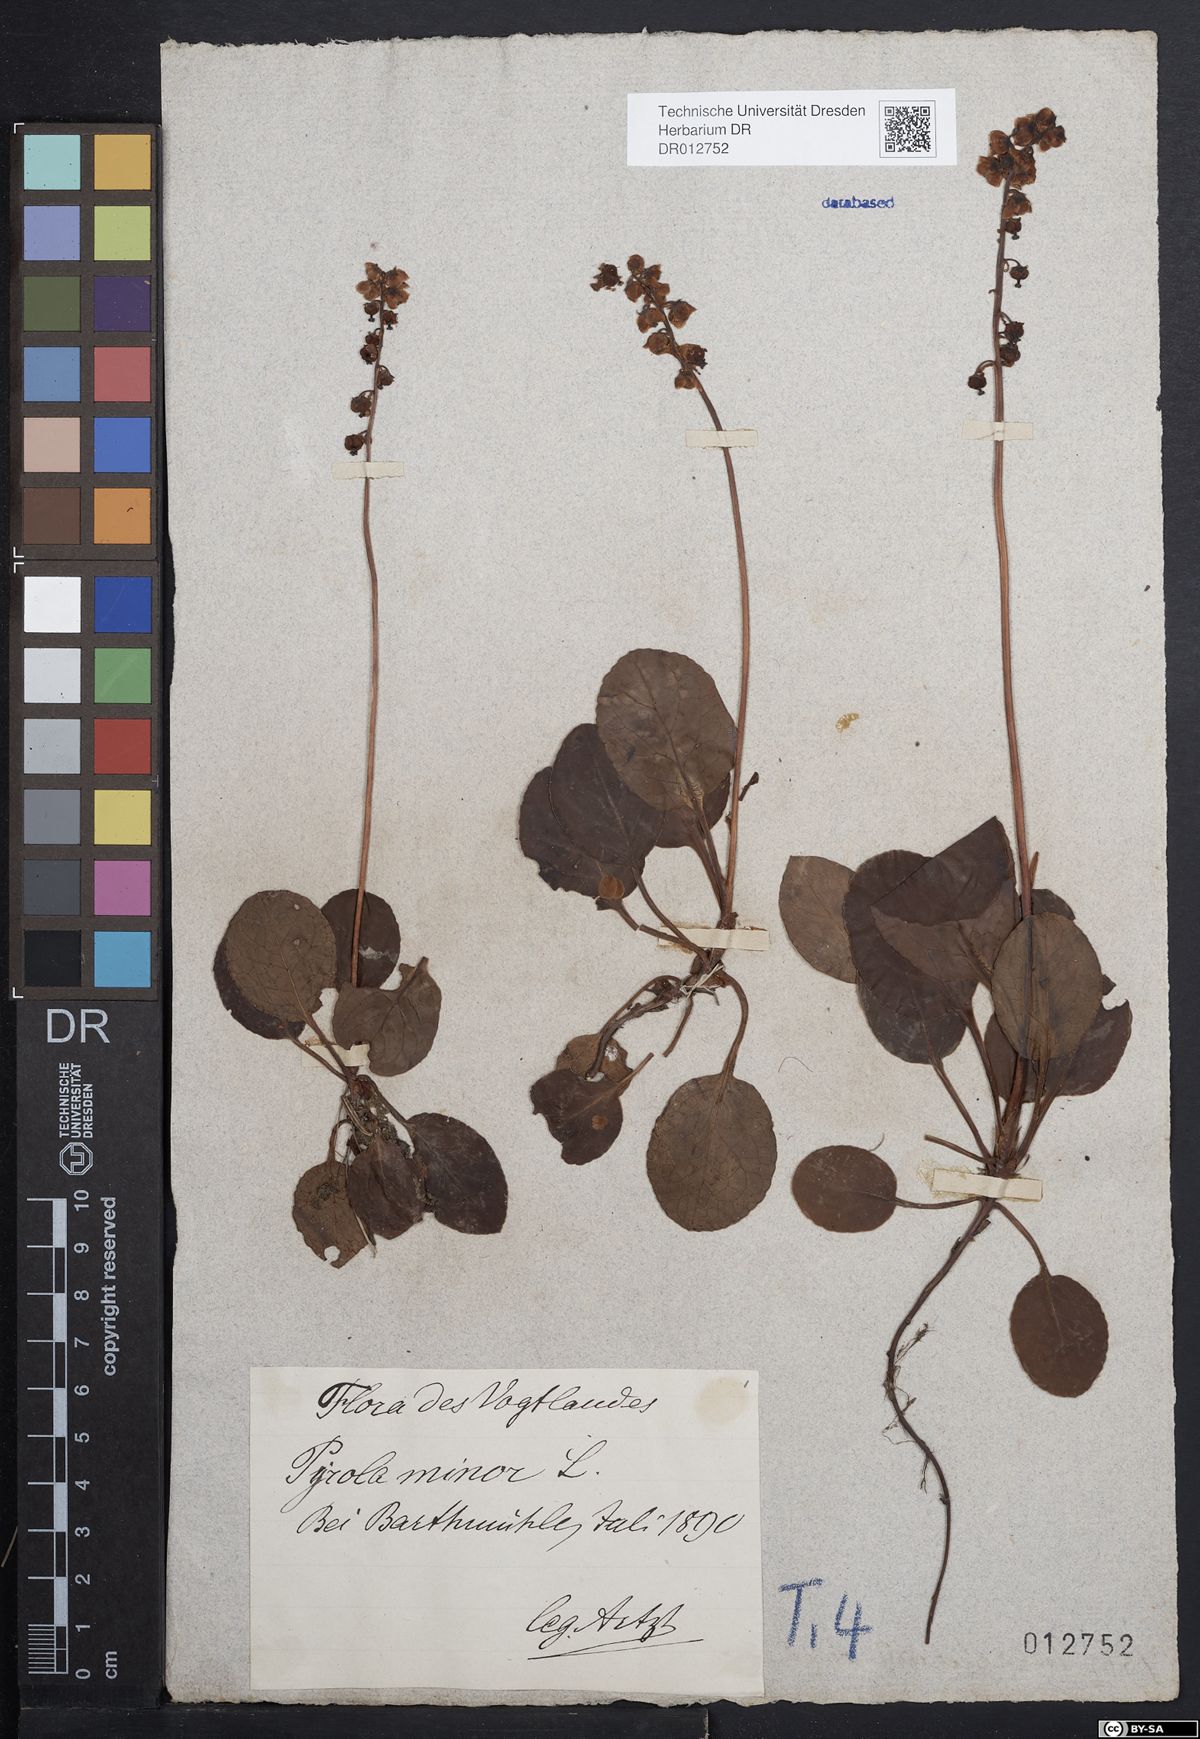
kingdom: Plantae
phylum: Tracheophyta
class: Magnoliopsida
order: Ericales
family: Ericaceae
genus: Pyrola
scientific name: Pyrola minor
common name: Common wintergreen
